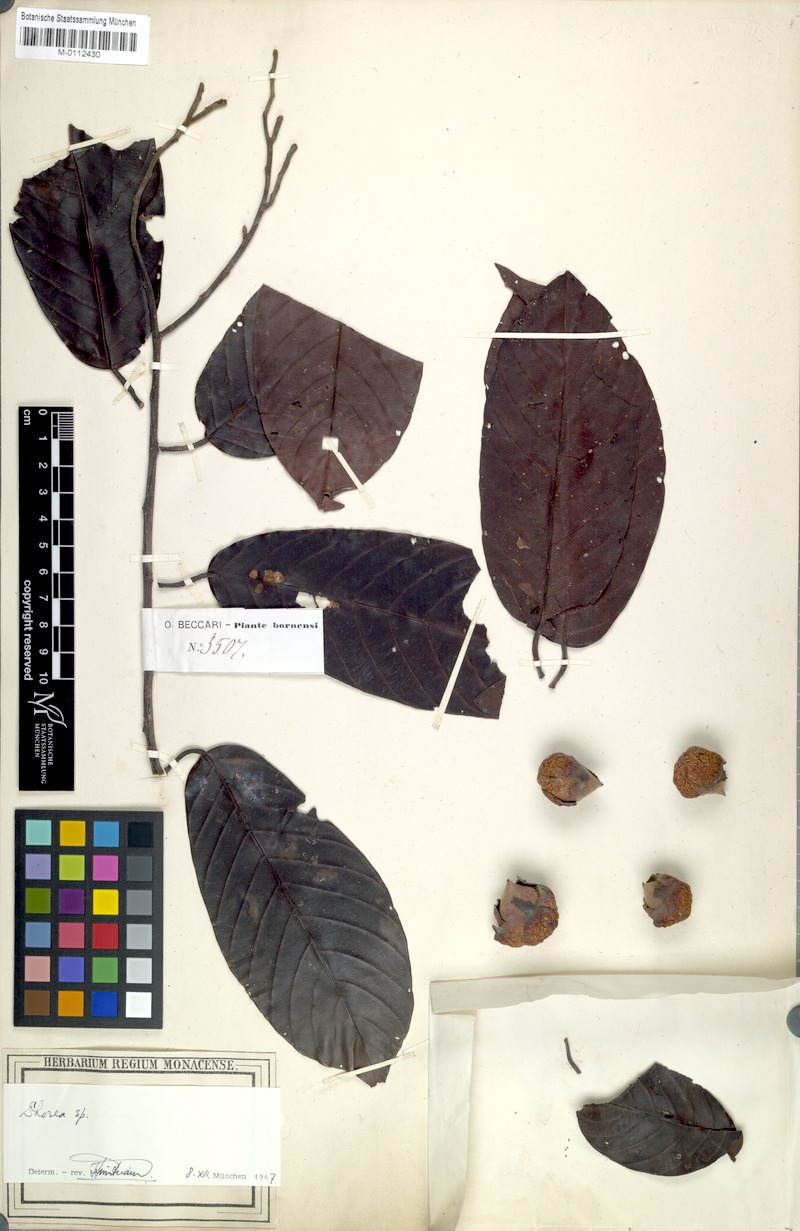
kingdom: Plantae
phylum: Tracheophyta
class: Magnoliopsida
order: Malvales
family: Dipterocarpaceae
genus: Shorea
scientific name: Shorea palembanica
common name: Light red meranti
